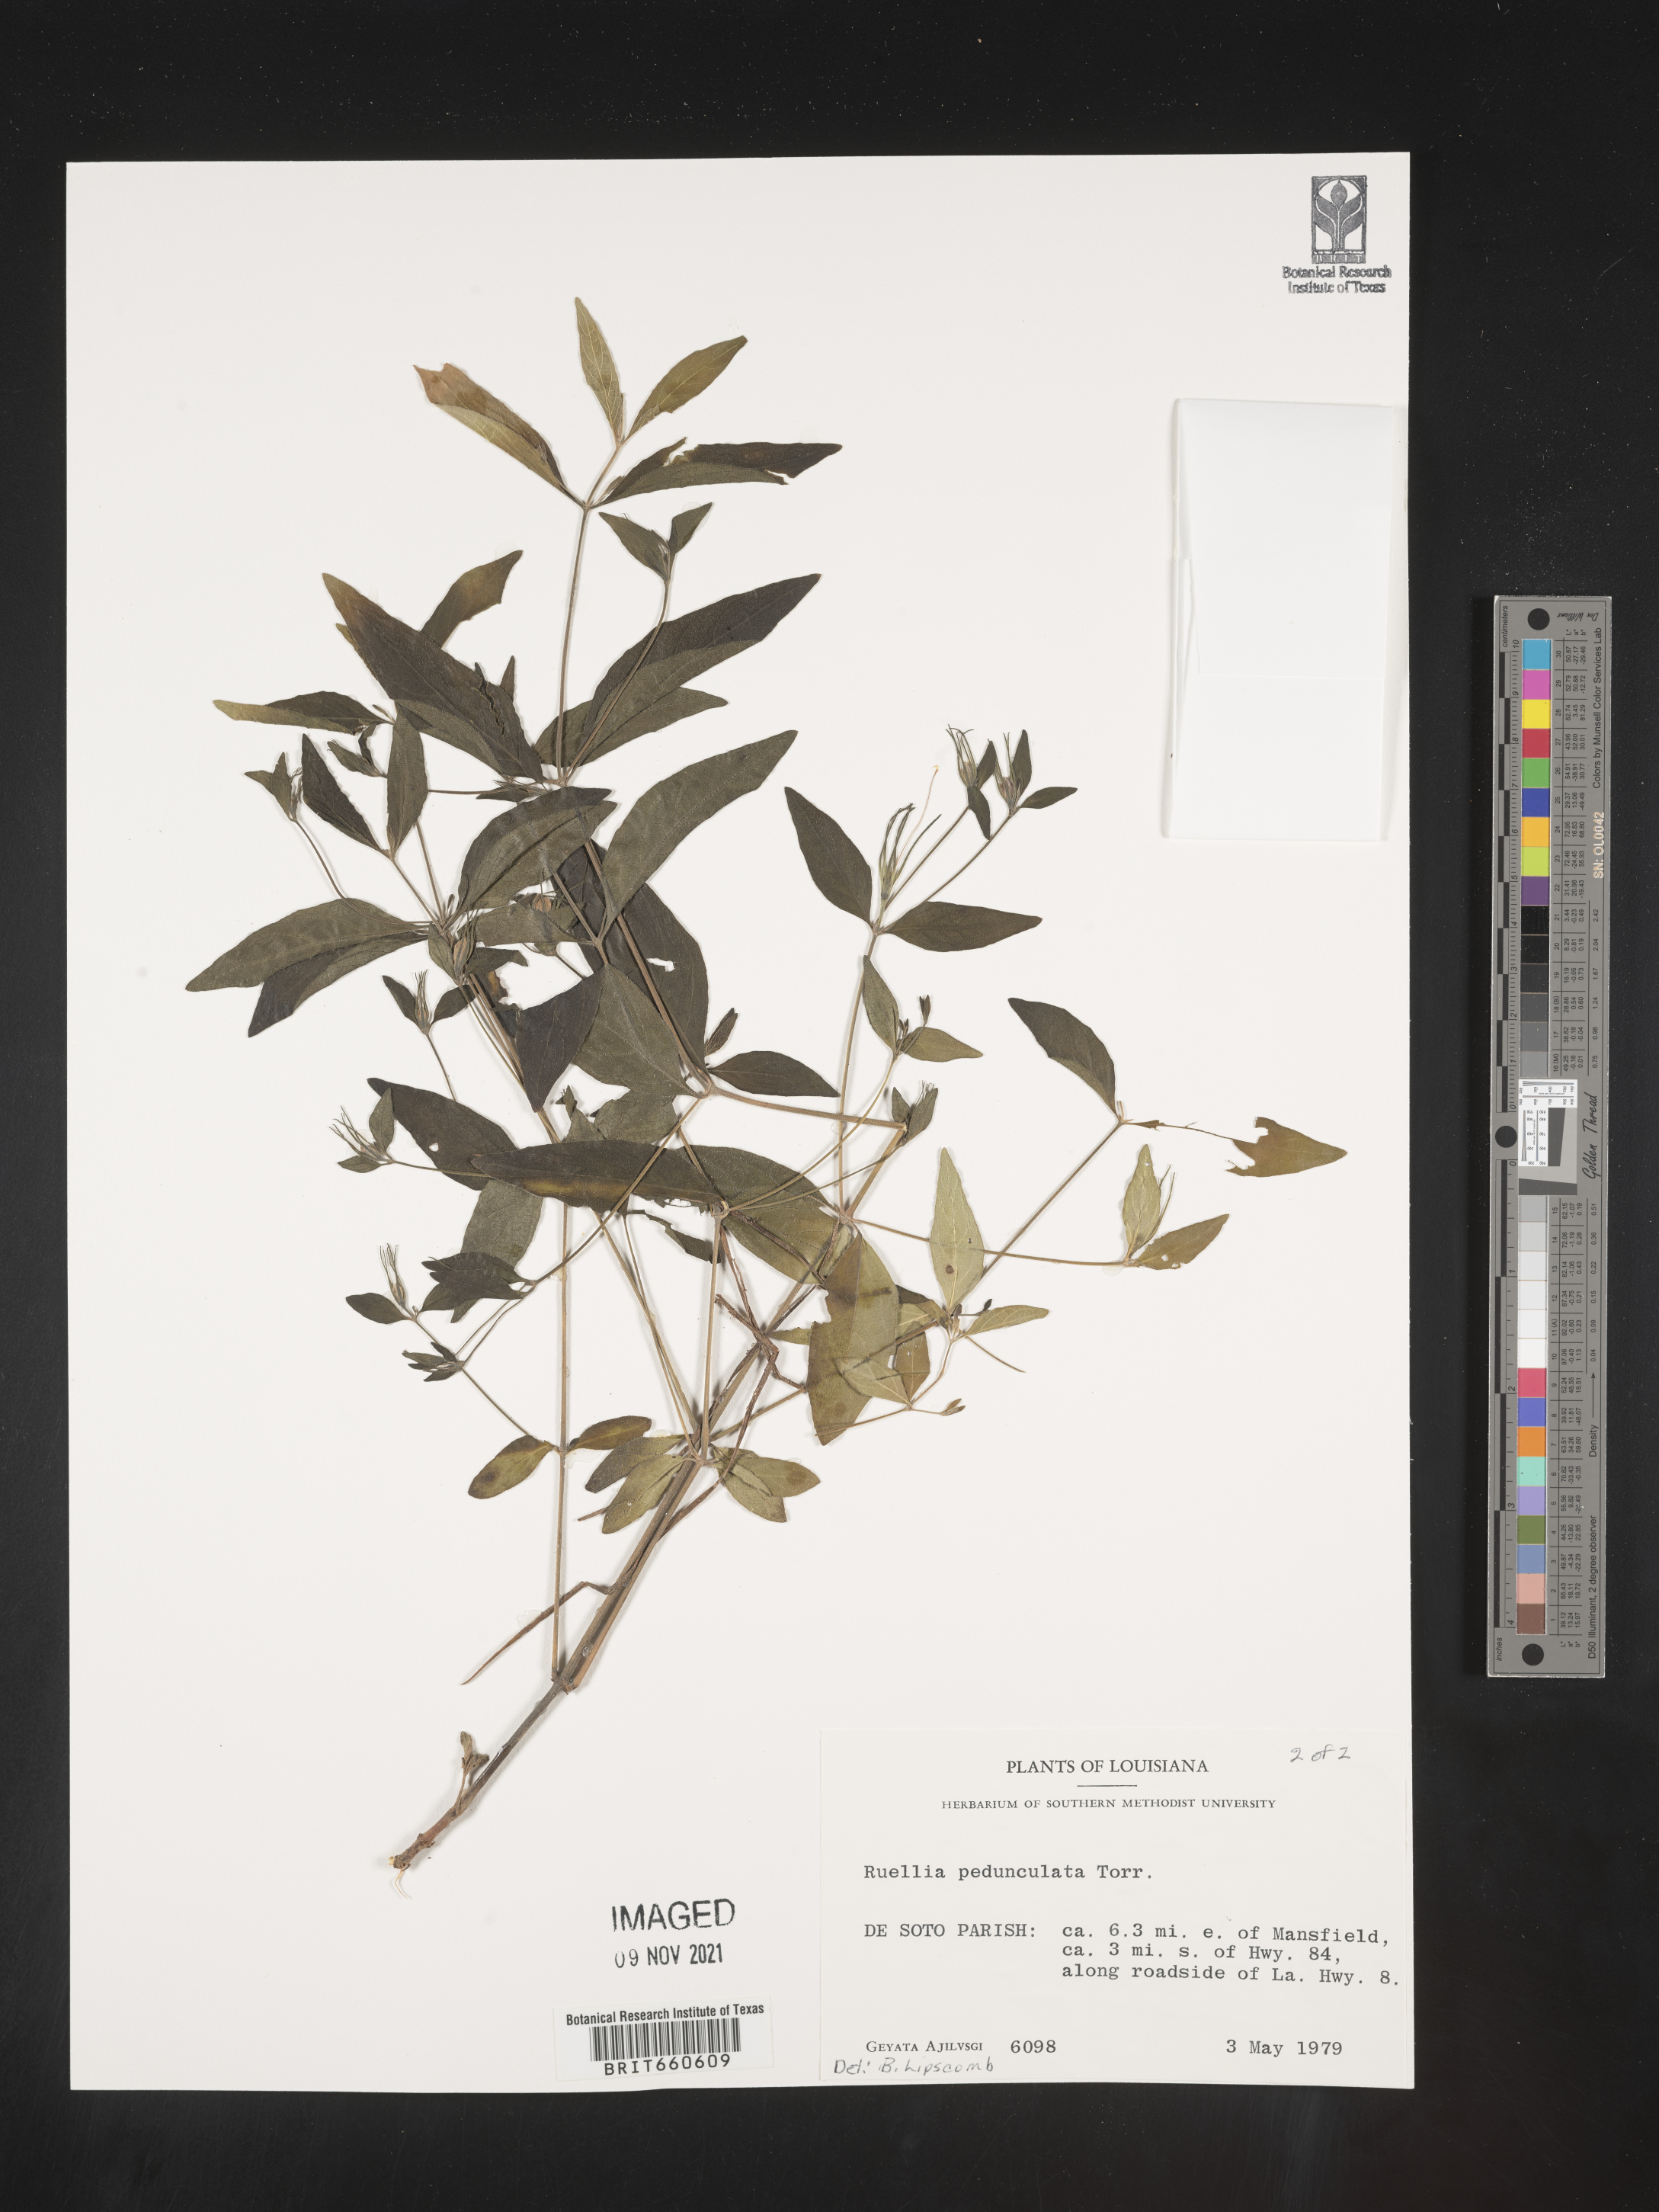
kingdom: Plantae
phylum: Tracheophyta
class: Magnoliopsida
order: Lamiales
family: Acanthaceae
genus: Ruellia
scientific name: Ruellia pedunculata
